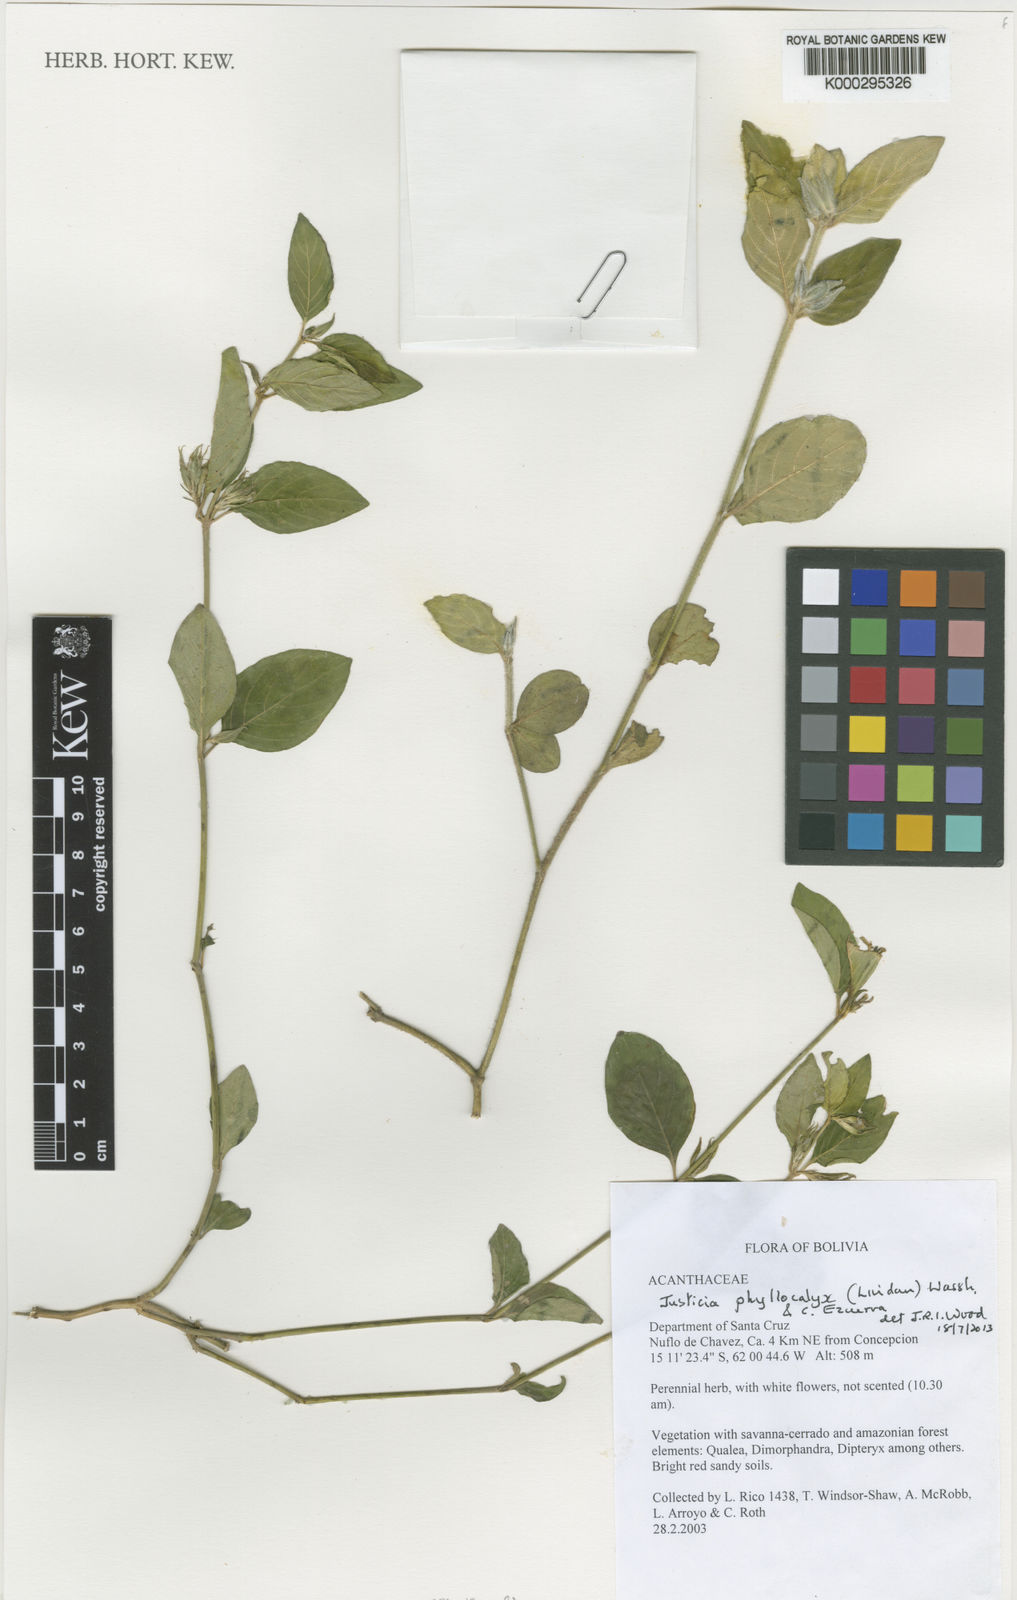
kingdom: Plantae
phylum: Tracheophyta
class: Magnoliopsida
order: Lamiales
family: Acanthaceae
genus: Justicia
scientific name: Justicia phyllocalyx
